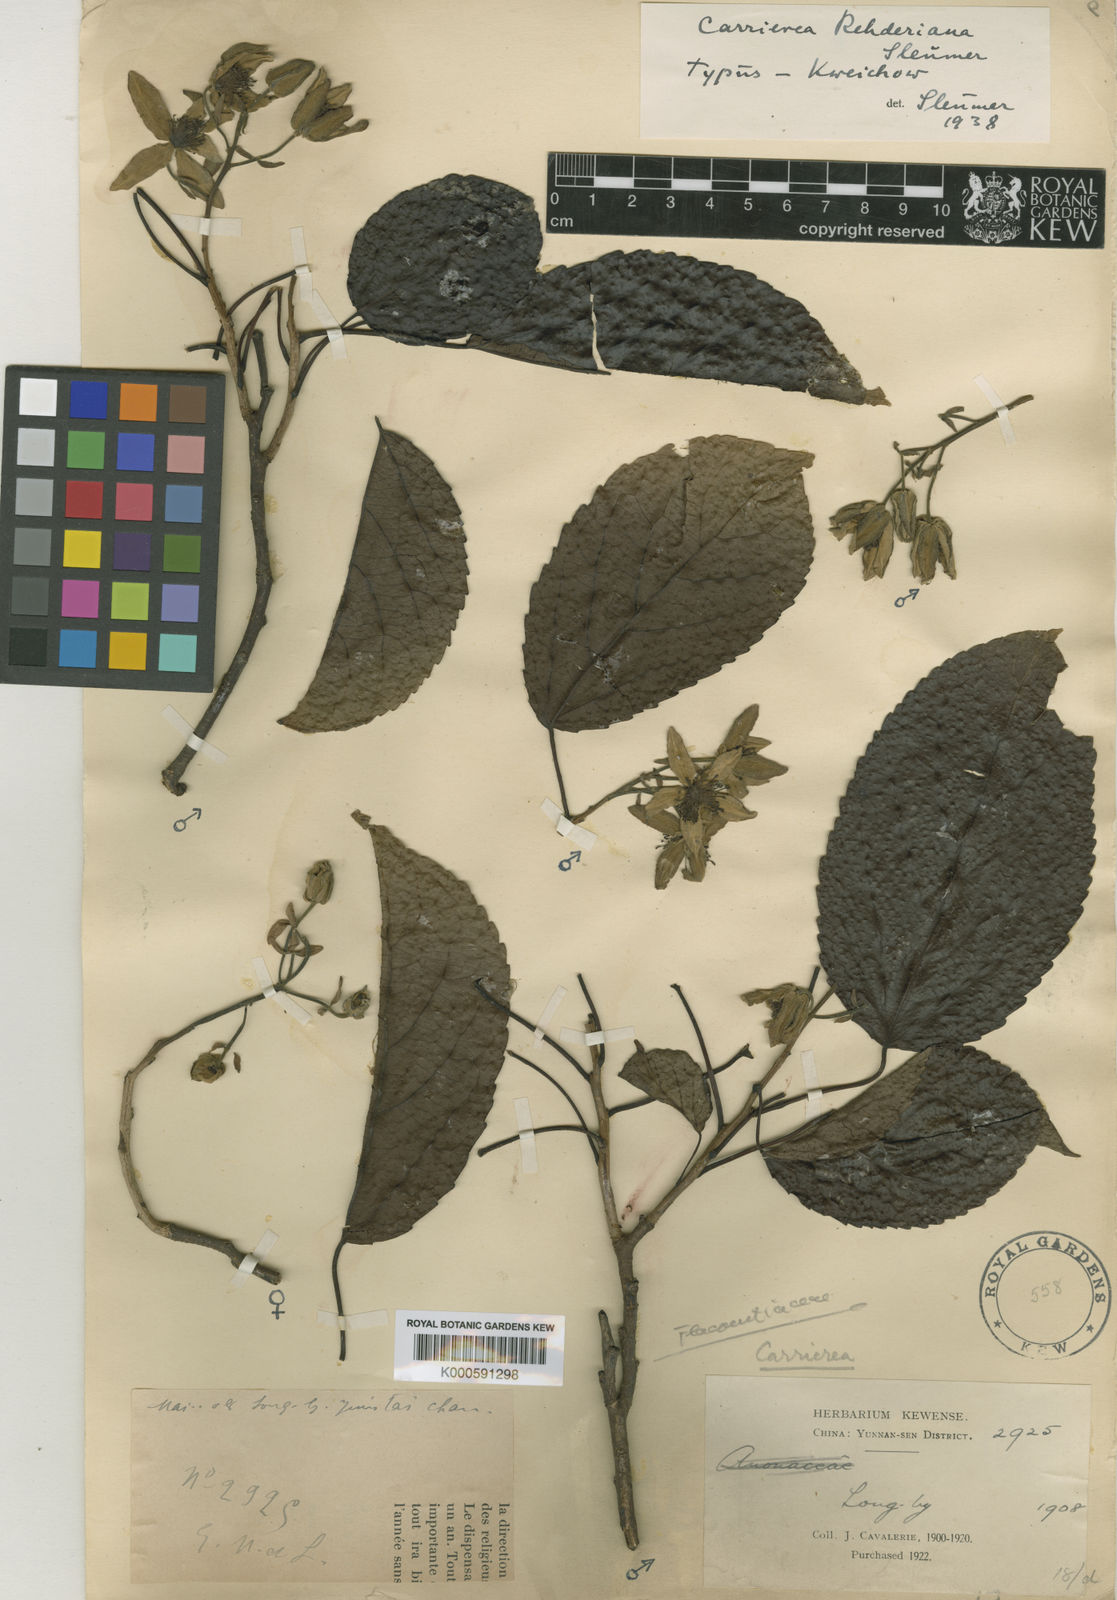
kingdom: Plantae
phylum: Tracheophyta
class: Magnoliopsida
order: Malpighiales
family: Salicaceae
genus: Carrierea
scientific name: Carrierea dunniana
